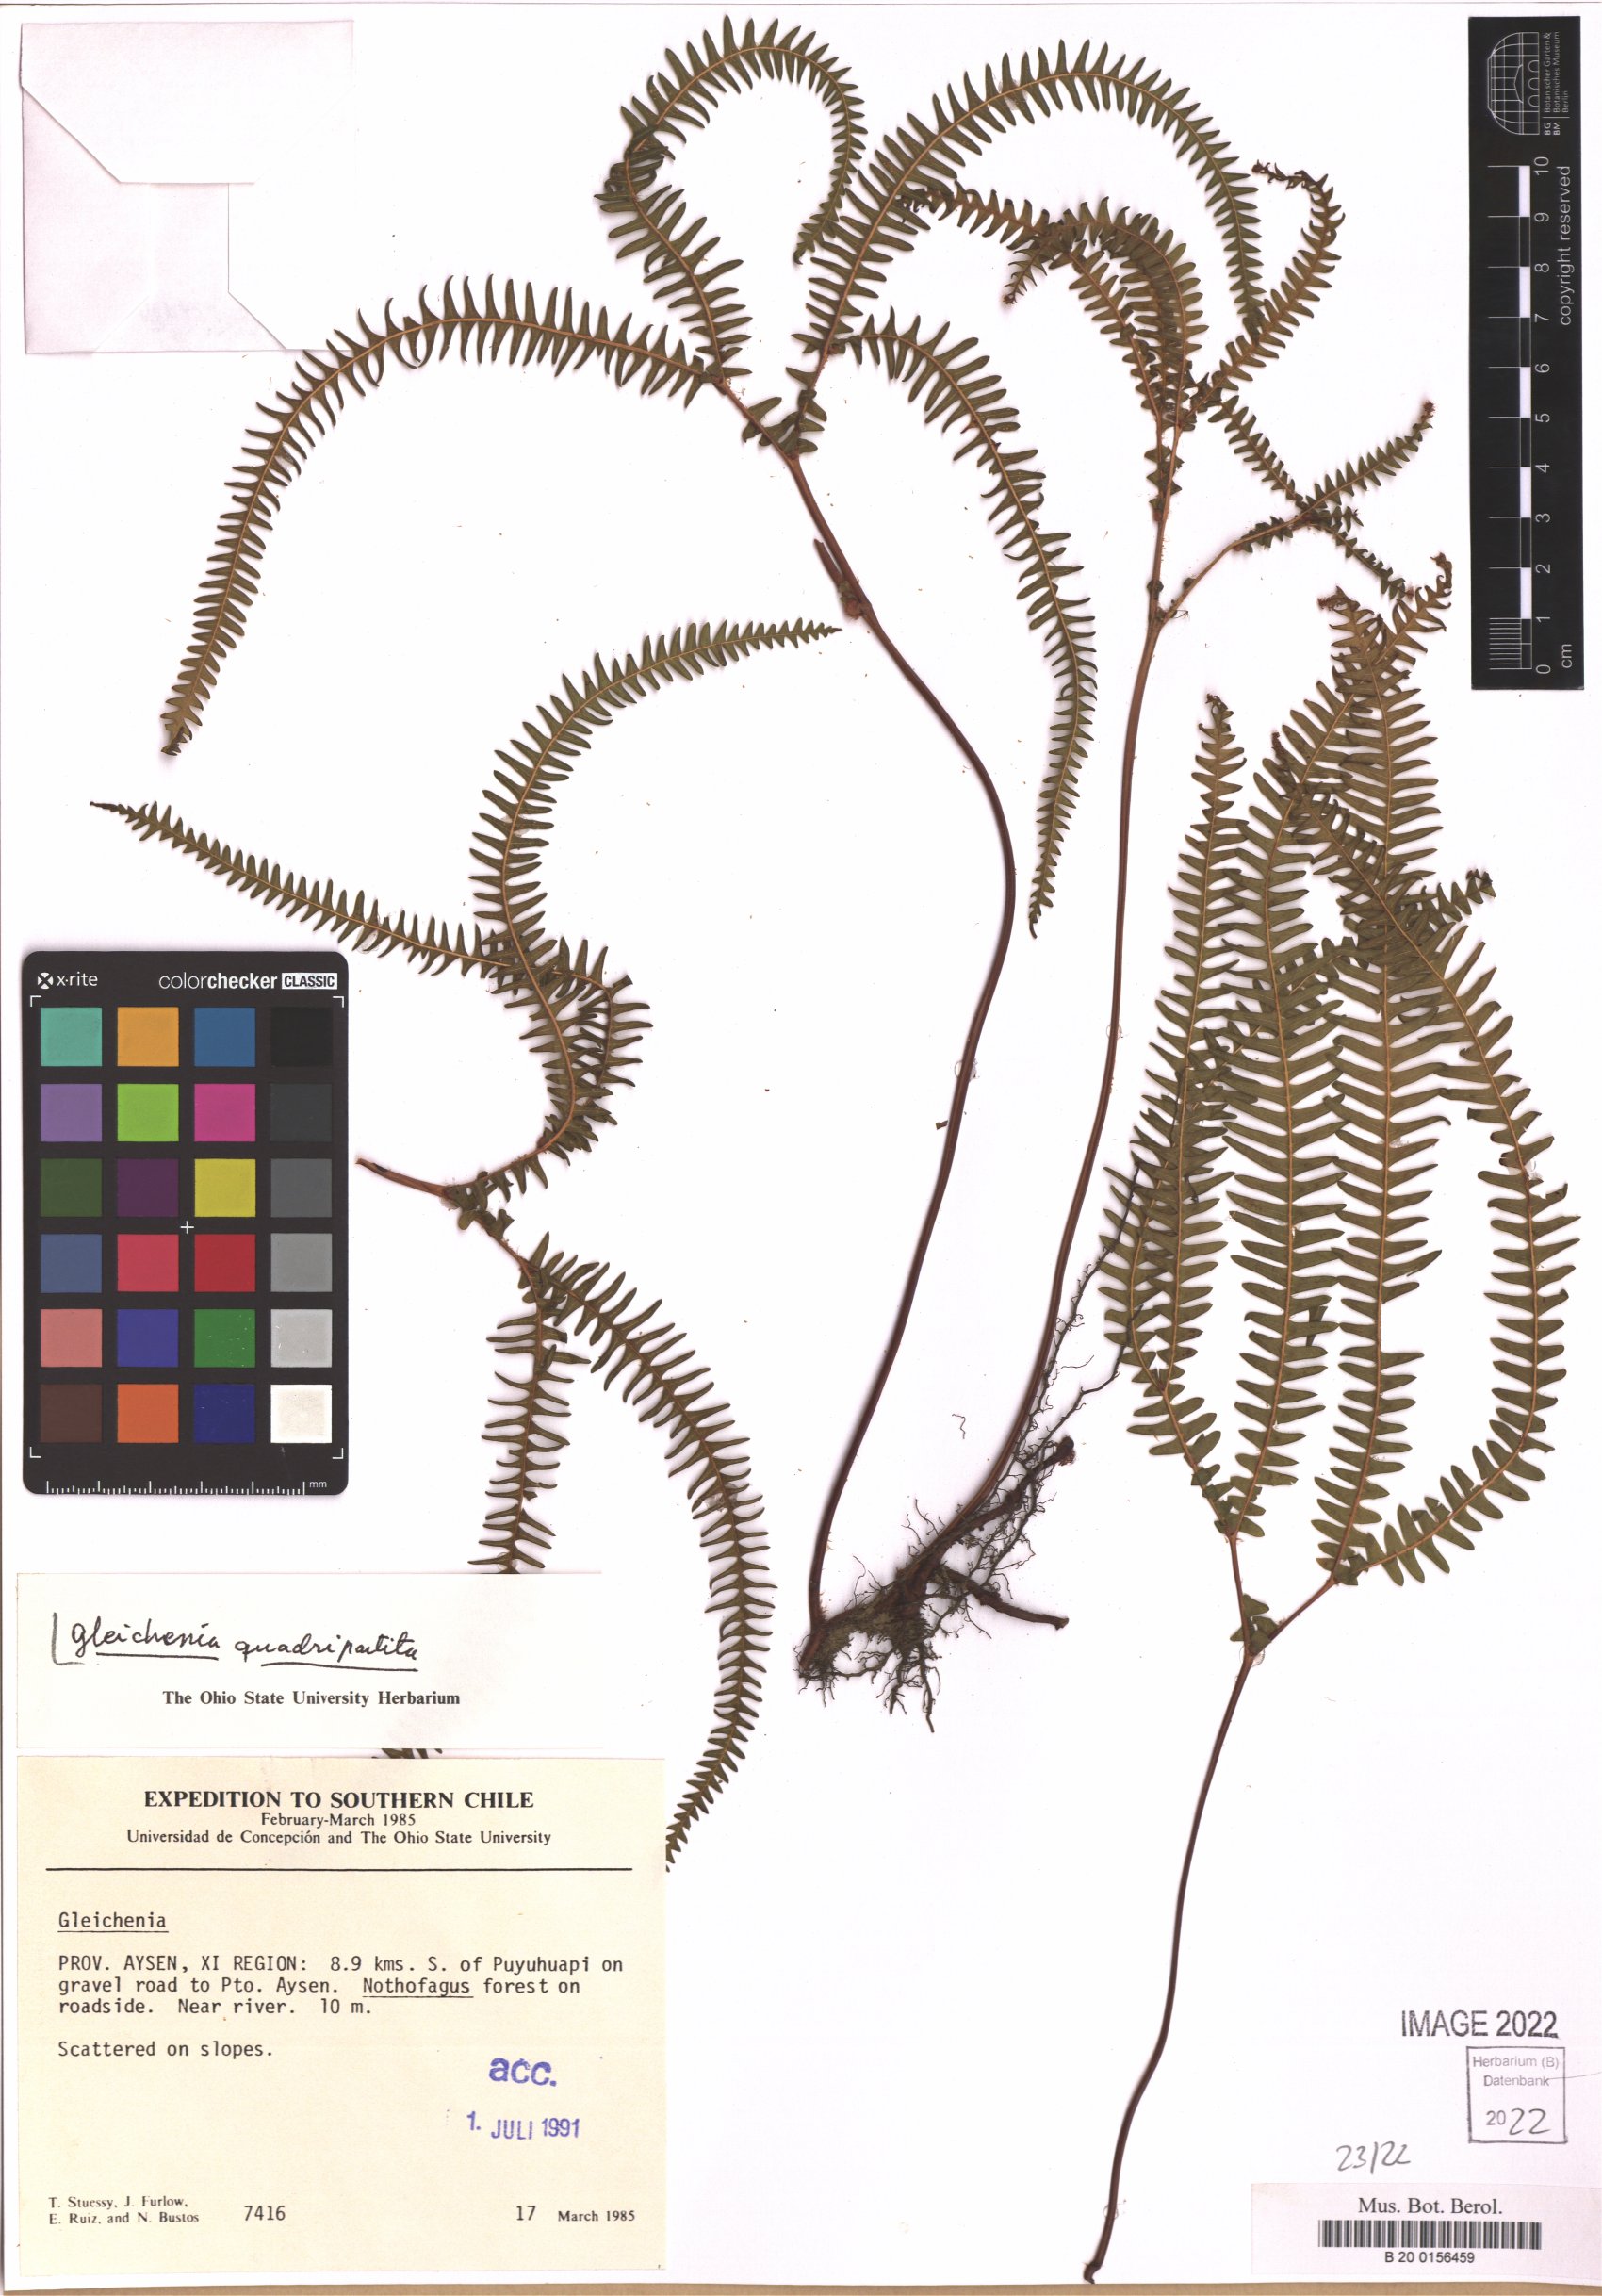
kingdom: Plantae
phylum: Tracheophyta
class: Polypodiopsida
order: Gleicheniales
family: Gleicheniaceae
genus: Sticherus
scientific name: Sticherus quadripartitus
